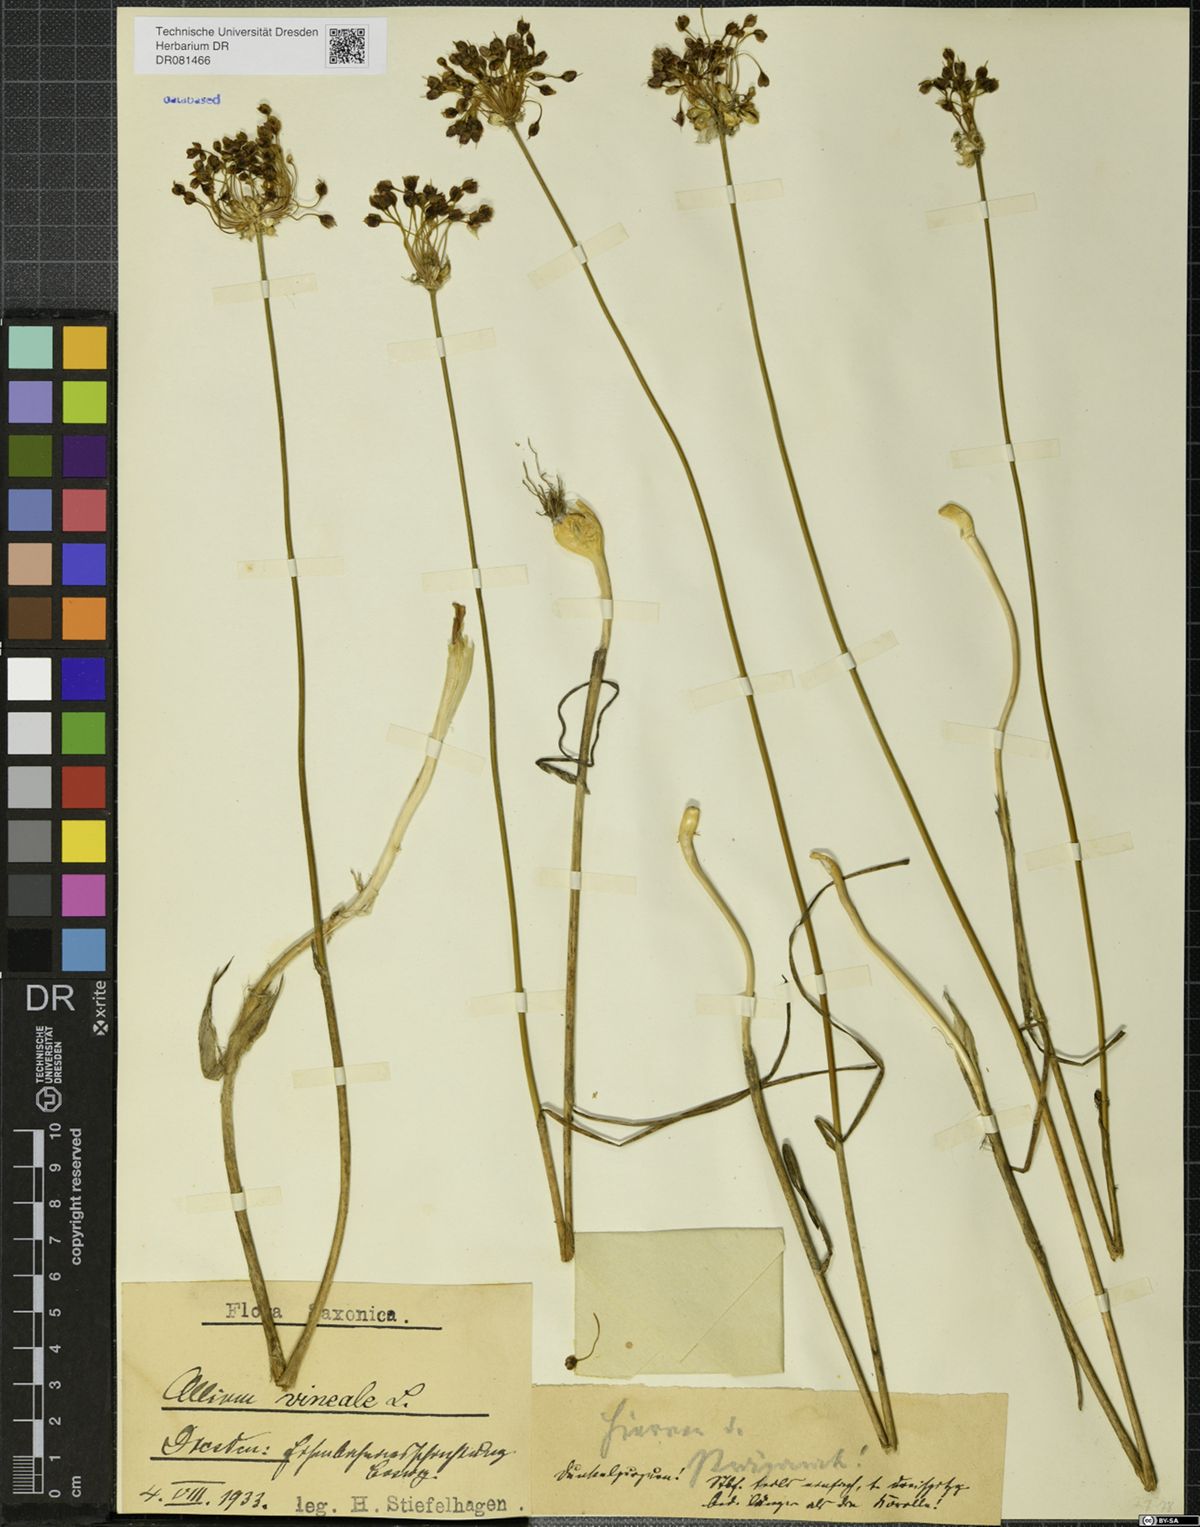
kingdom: Plantae
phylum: Tracheophyta
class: Liliopsida
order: Asparagales
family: Amaryllidaceae
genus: Allium
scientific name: Allium vineale
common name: Crow garlic
